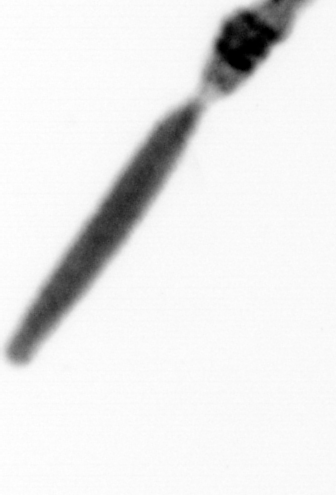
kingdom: Animalia
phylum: Arthropoda
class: Copepoda
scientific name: Copepoda
